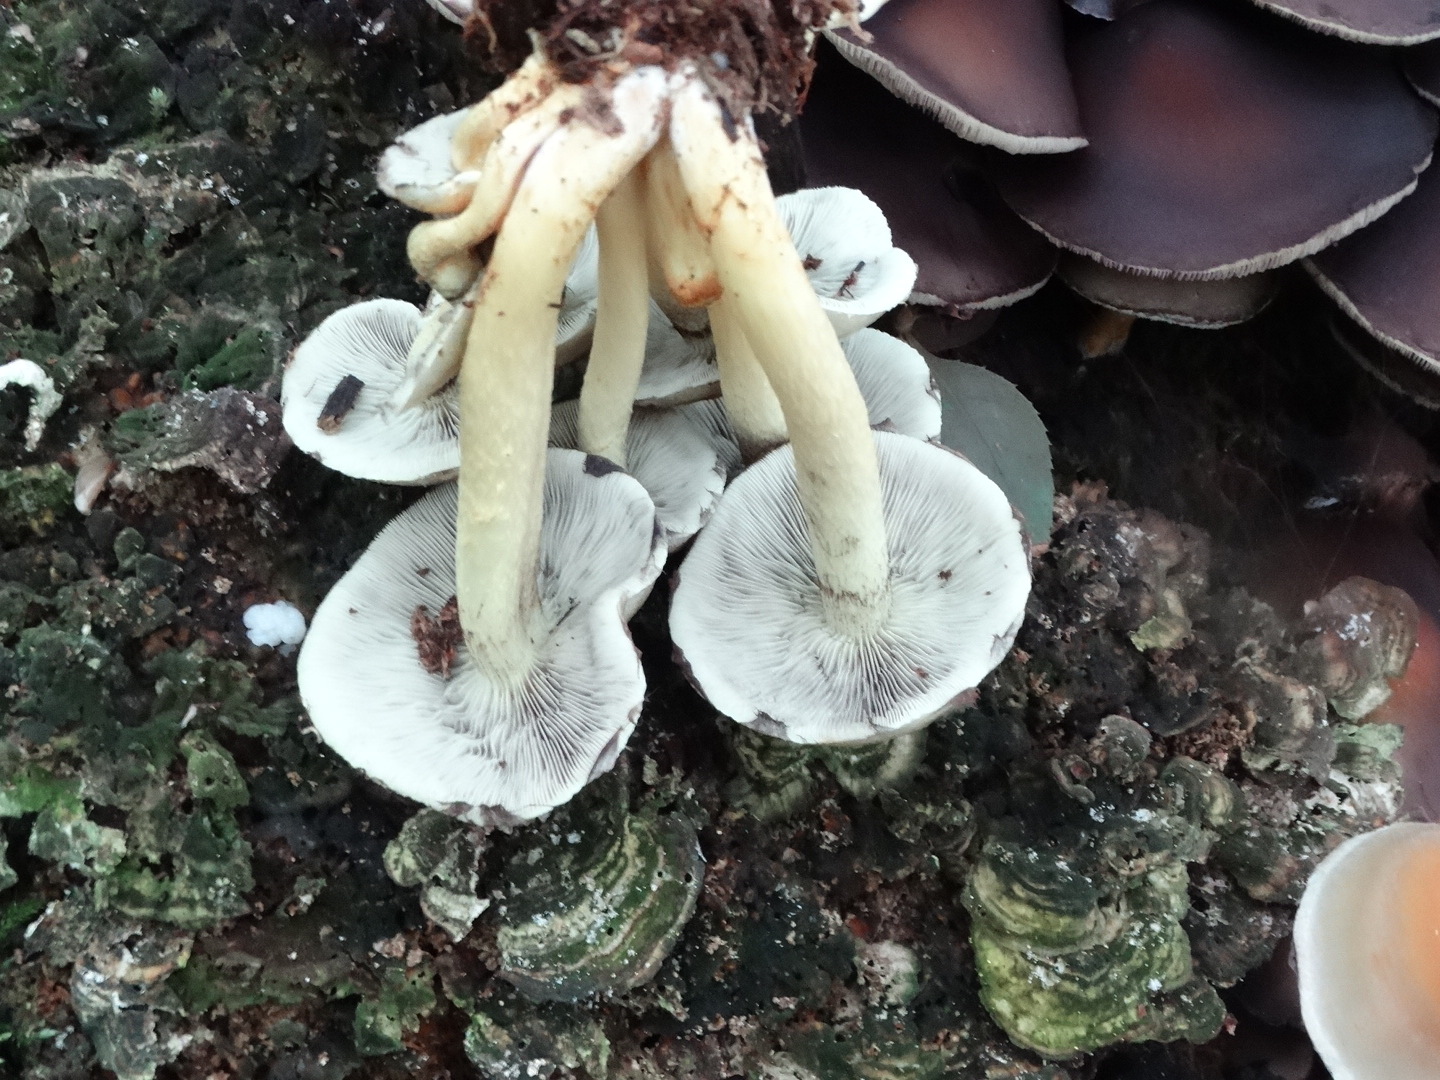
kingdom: Fungi
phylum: Basidiomycota
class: Agaricomycetes
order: Agaricales
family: Strophariaceae
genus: Hypholoma
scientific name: Hypholoma fasciculare
